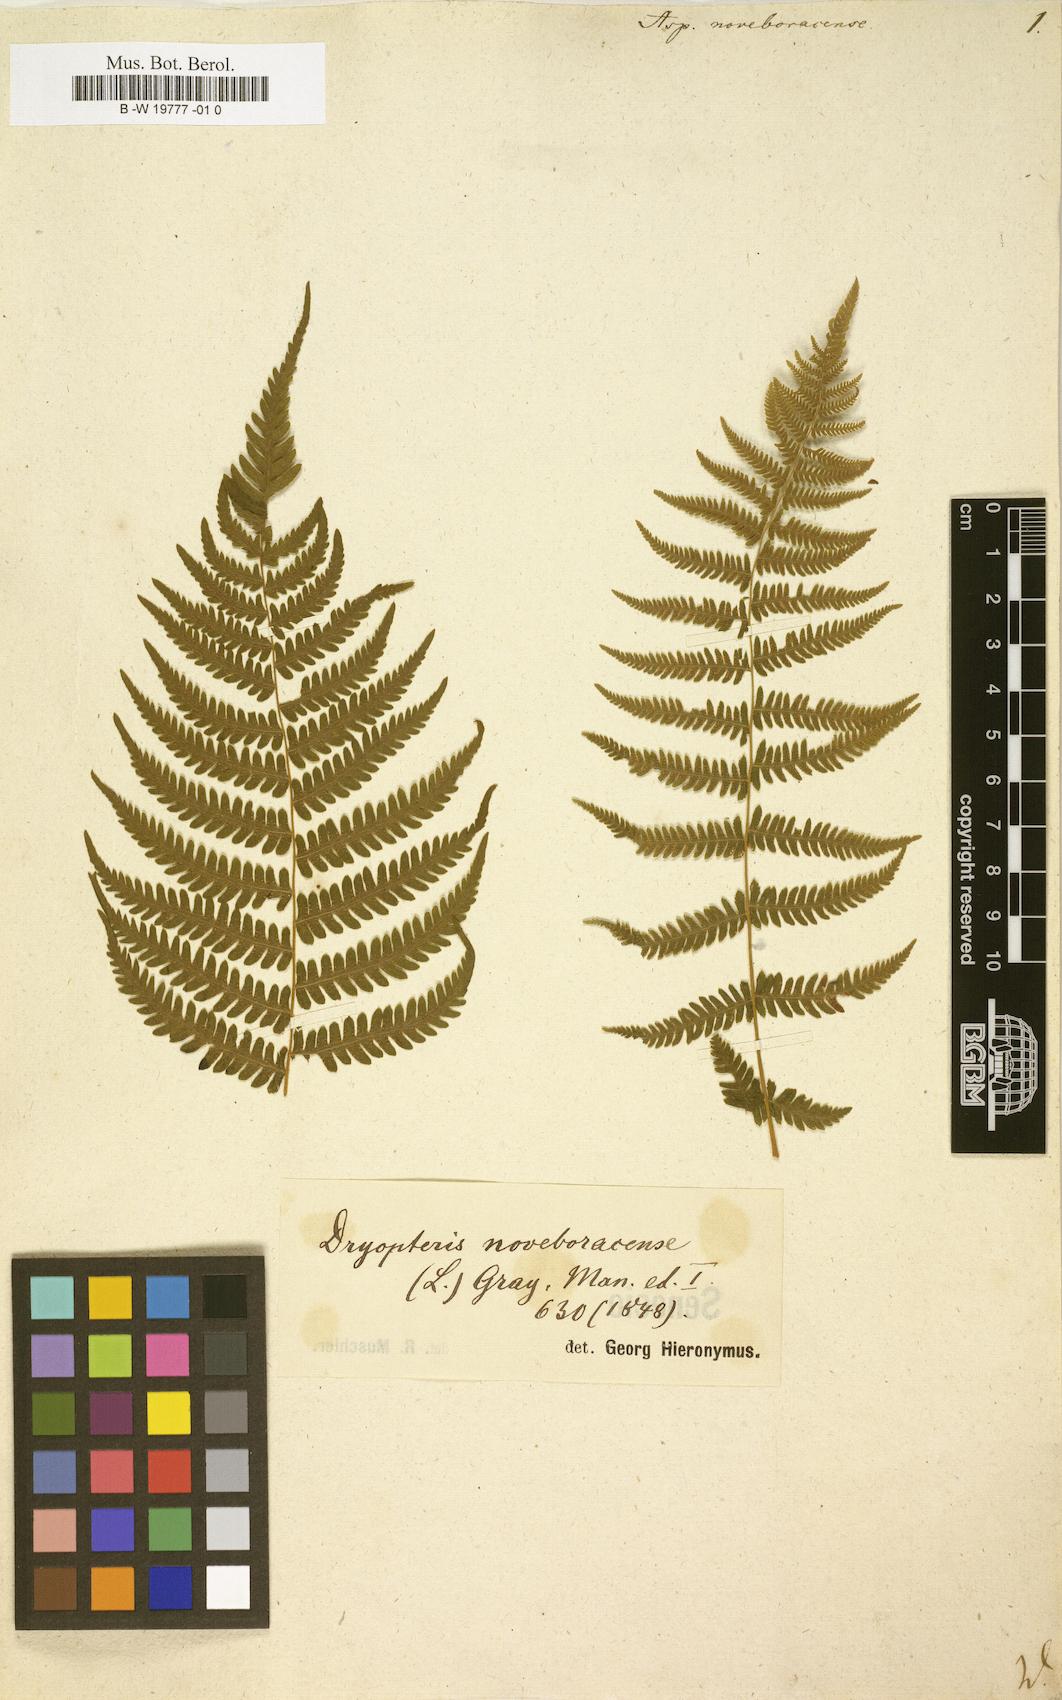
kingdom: Plantae
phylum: Tracheophyta
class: Polypodiopsida
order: Polypodiales
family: Thelypteridaceae
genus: Amauropelta
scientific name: Amauropelta noveboracensis
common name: New york fern
